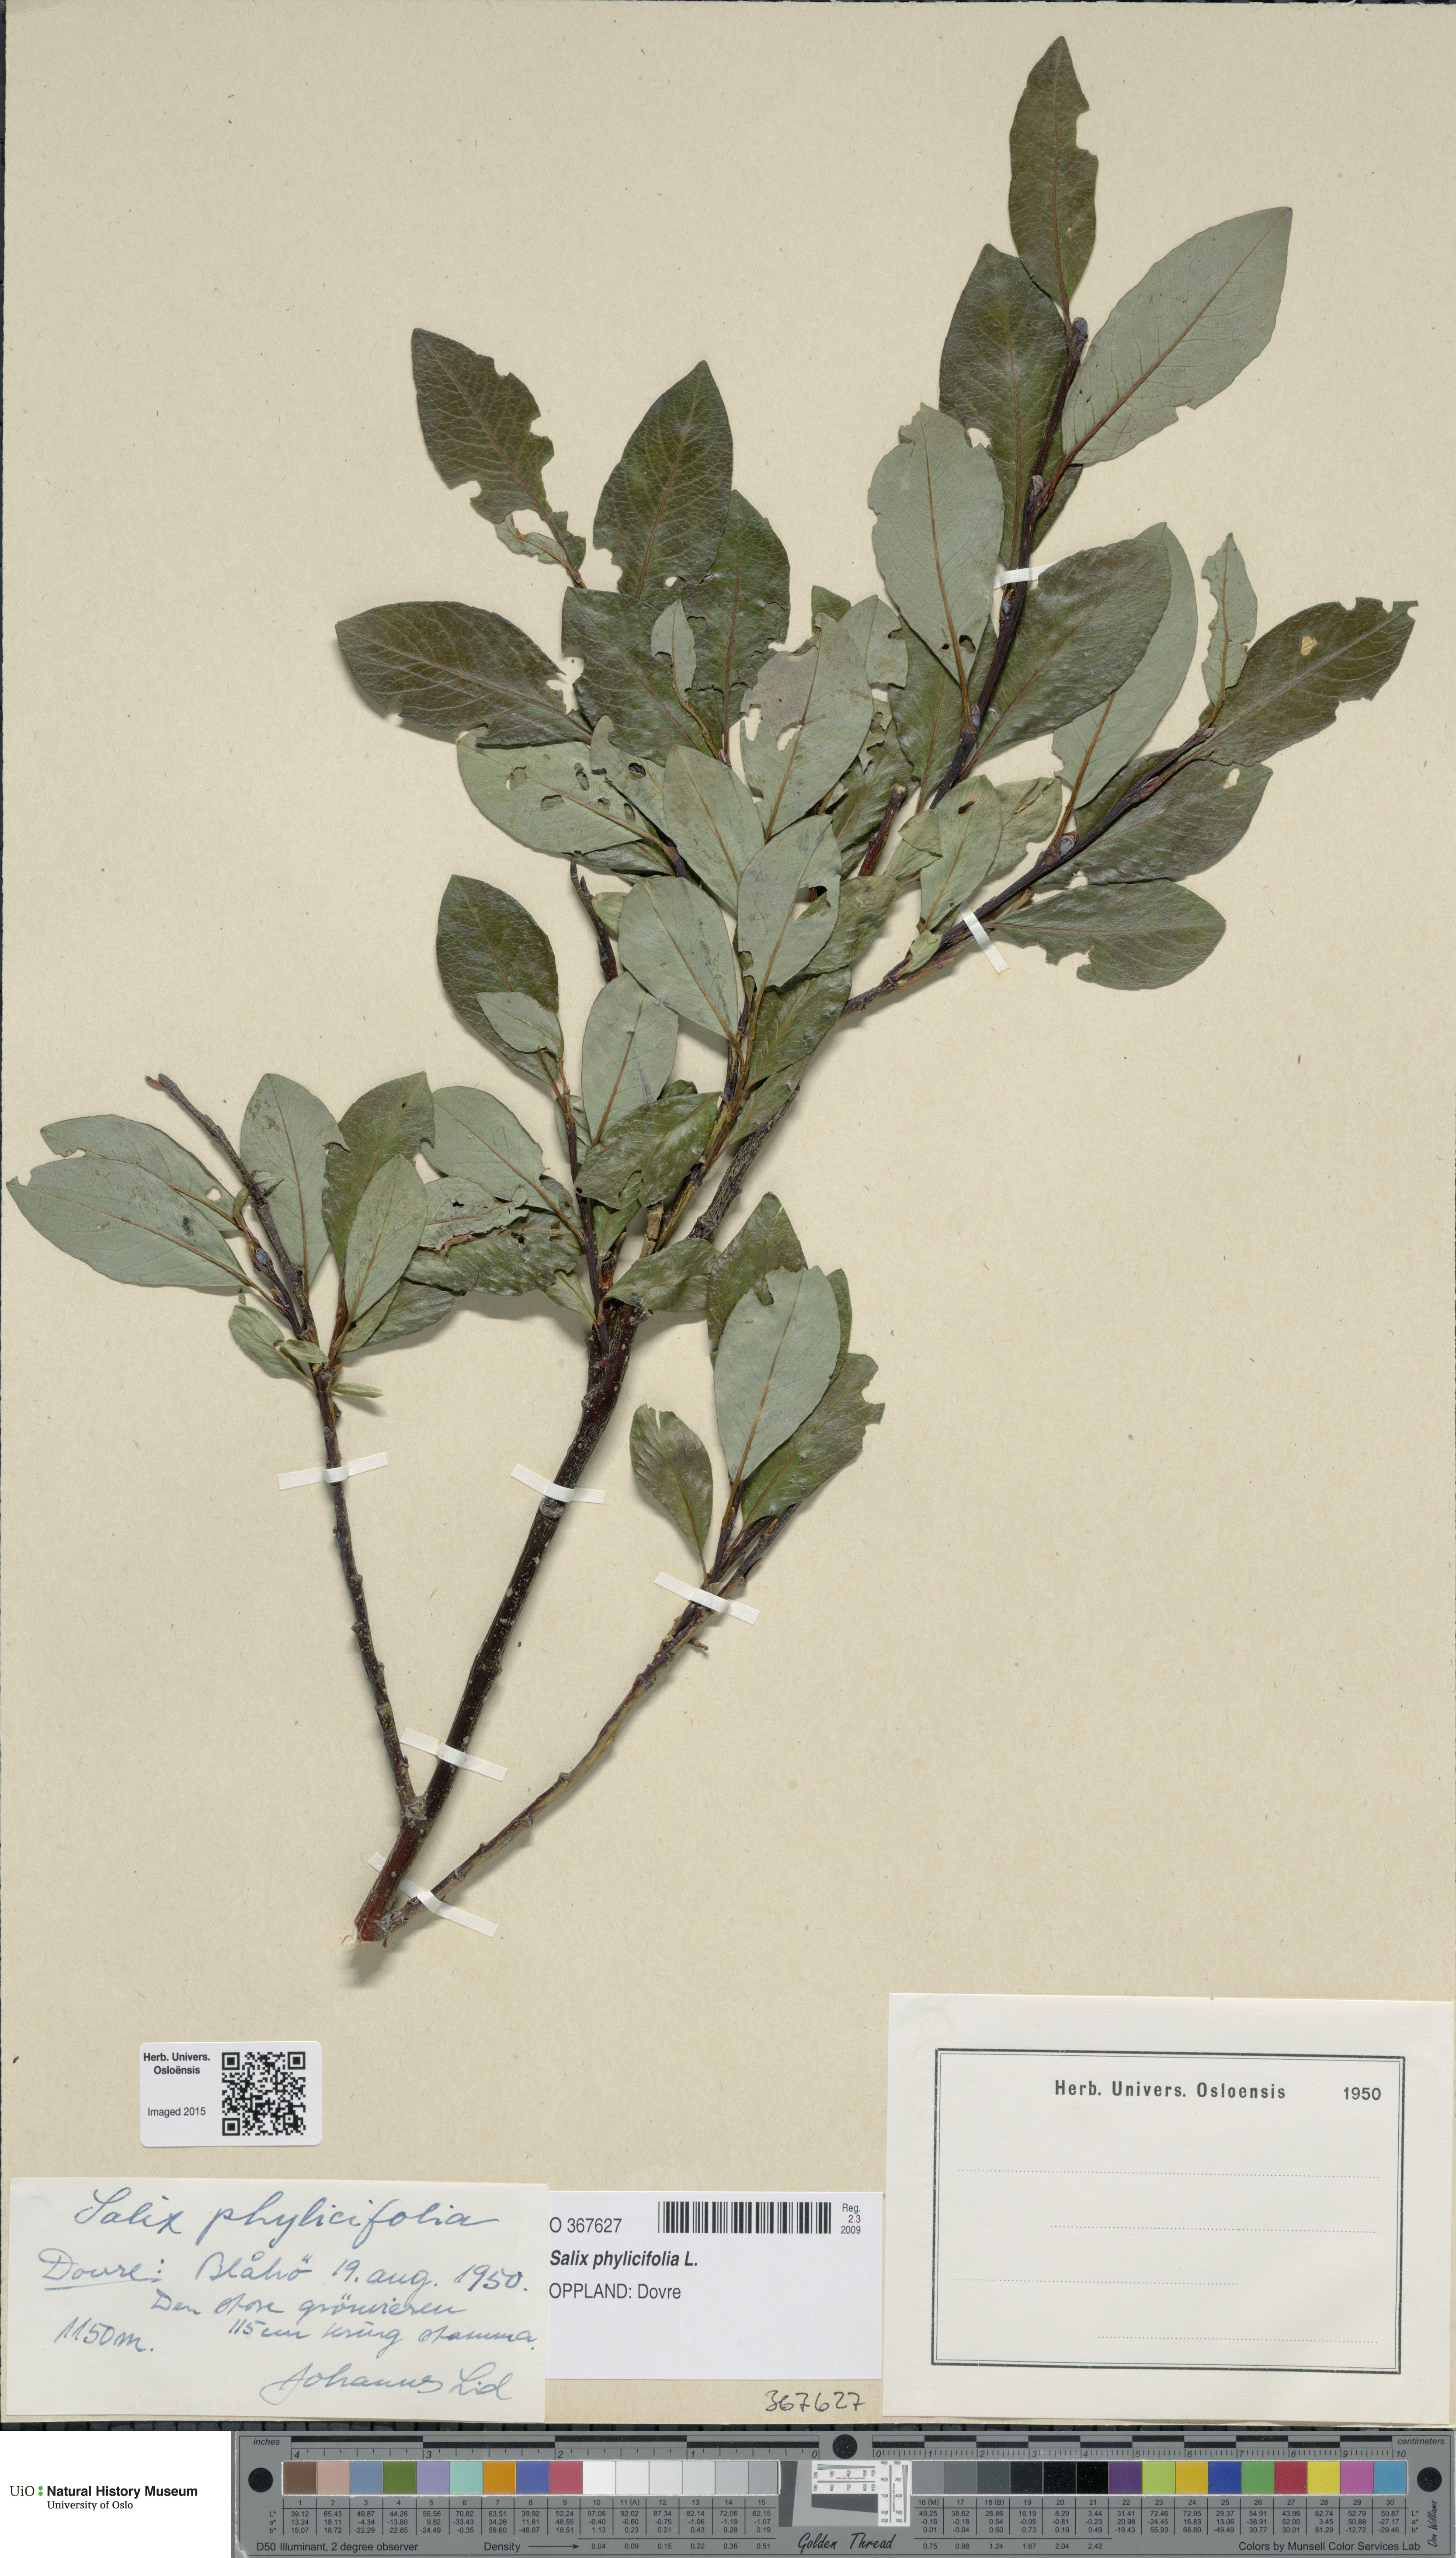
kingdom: Plantae
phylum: Tracheophyta
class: Magnoliopsida
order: Malpighiales
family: Salicaceae
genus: Salix
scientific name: Salix phylicifolia
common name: Tea-leaved willow
